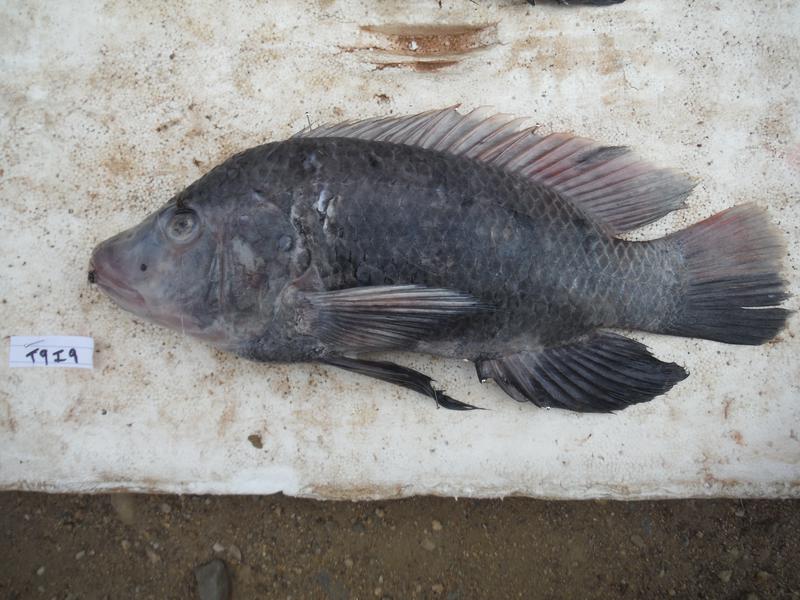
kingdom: Animalia
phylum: Chordata
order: Perciformes
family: Cichlidae
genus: Oreochromis
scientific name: Oreochromis urolepis
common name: Wami tilapia
